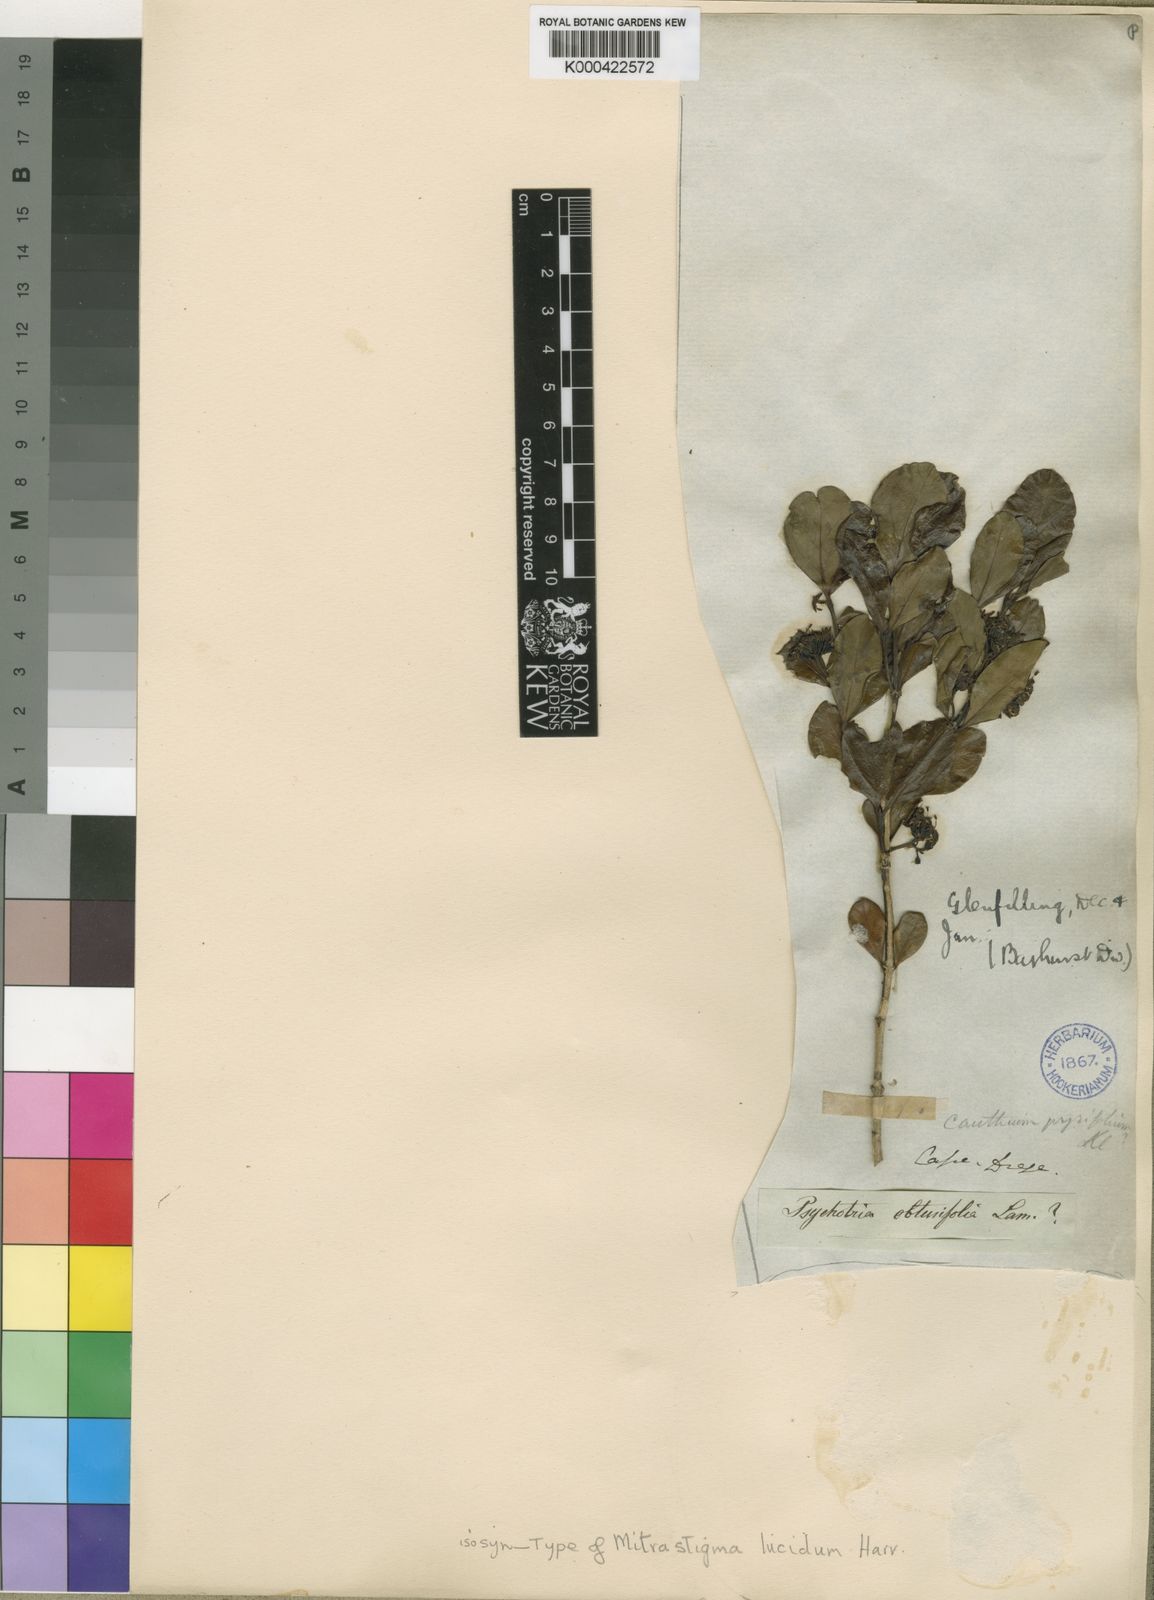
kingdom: Plantae
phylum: Tracheophyta
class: Magnoliopsida
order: Gentianales
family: Rubiaceae
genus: Psydrax
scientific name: Psydrax obovatus
